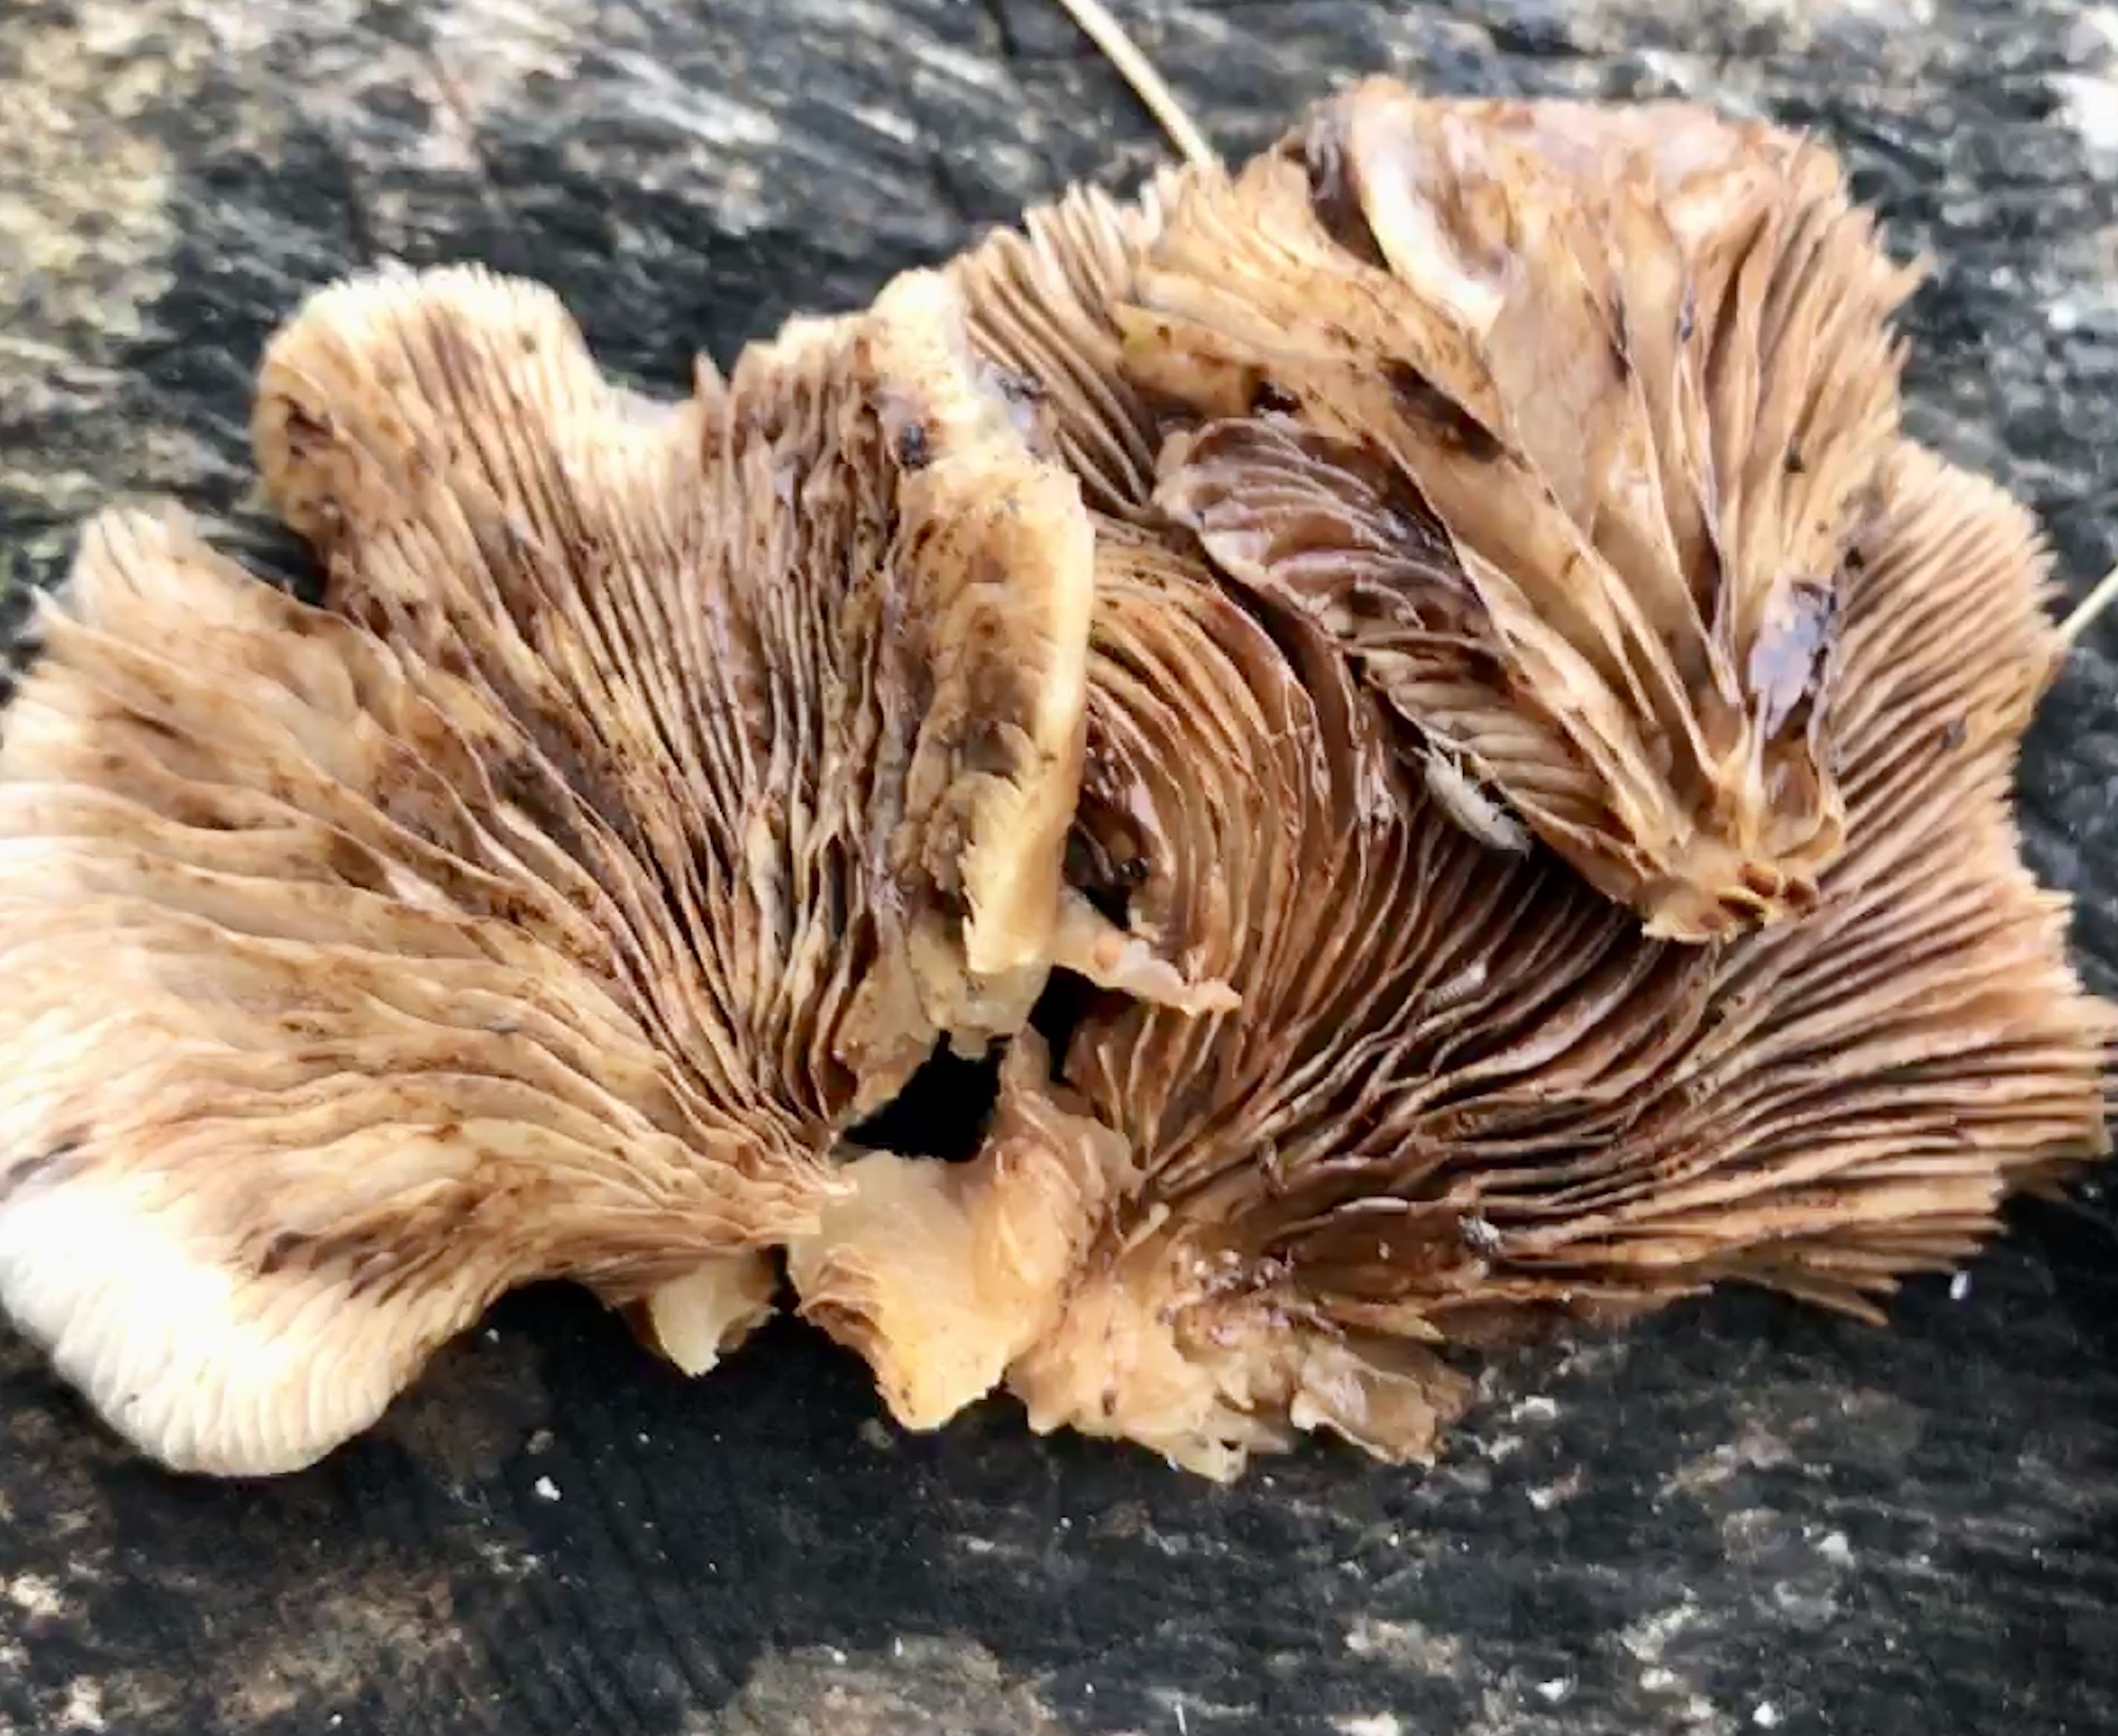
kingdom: Fungi
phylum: Basidiomycota
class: Agaricomycetes
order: Agaricales
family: Crepidotaceae
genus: Crepidotus
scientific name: Crepidotus applanatus
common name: tvefarvet muslingesvamp
